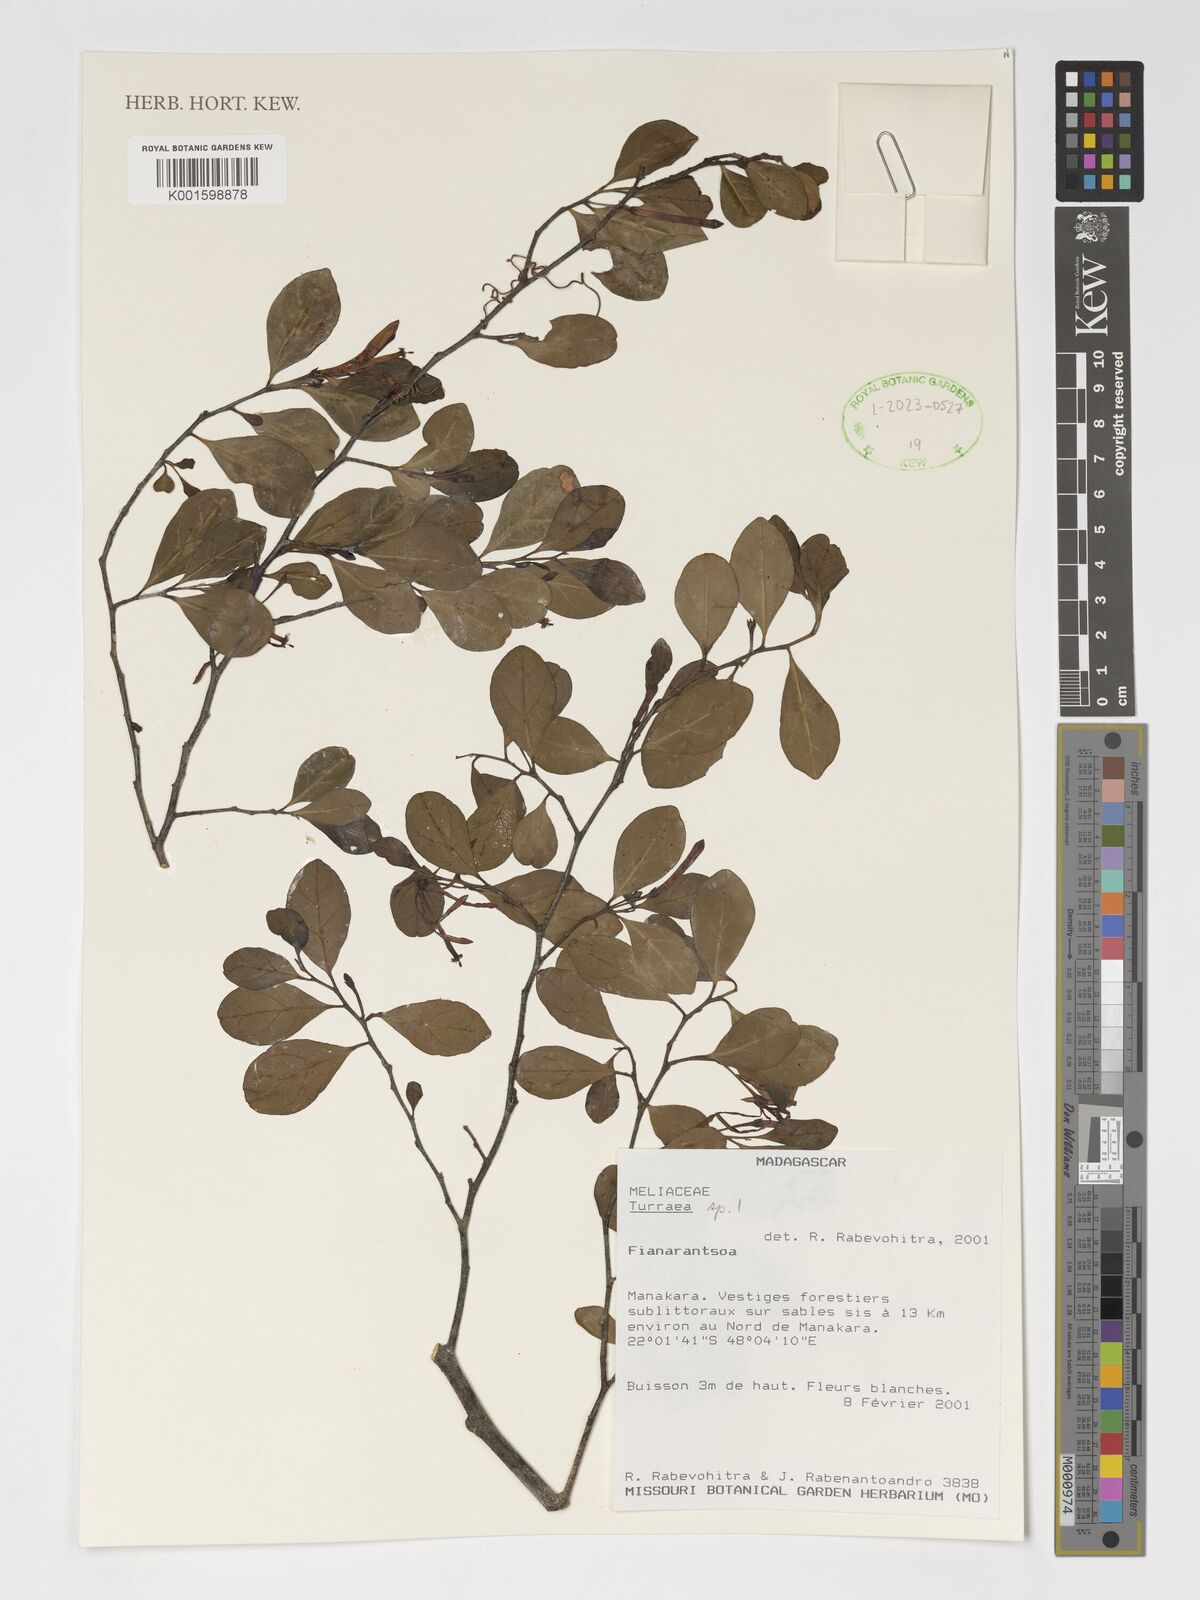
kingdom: Plantae
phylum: Tracheophyta
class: Magnoliopsida
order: Sapindales
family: Meliaceae
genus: Turraea
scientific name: Turraea
